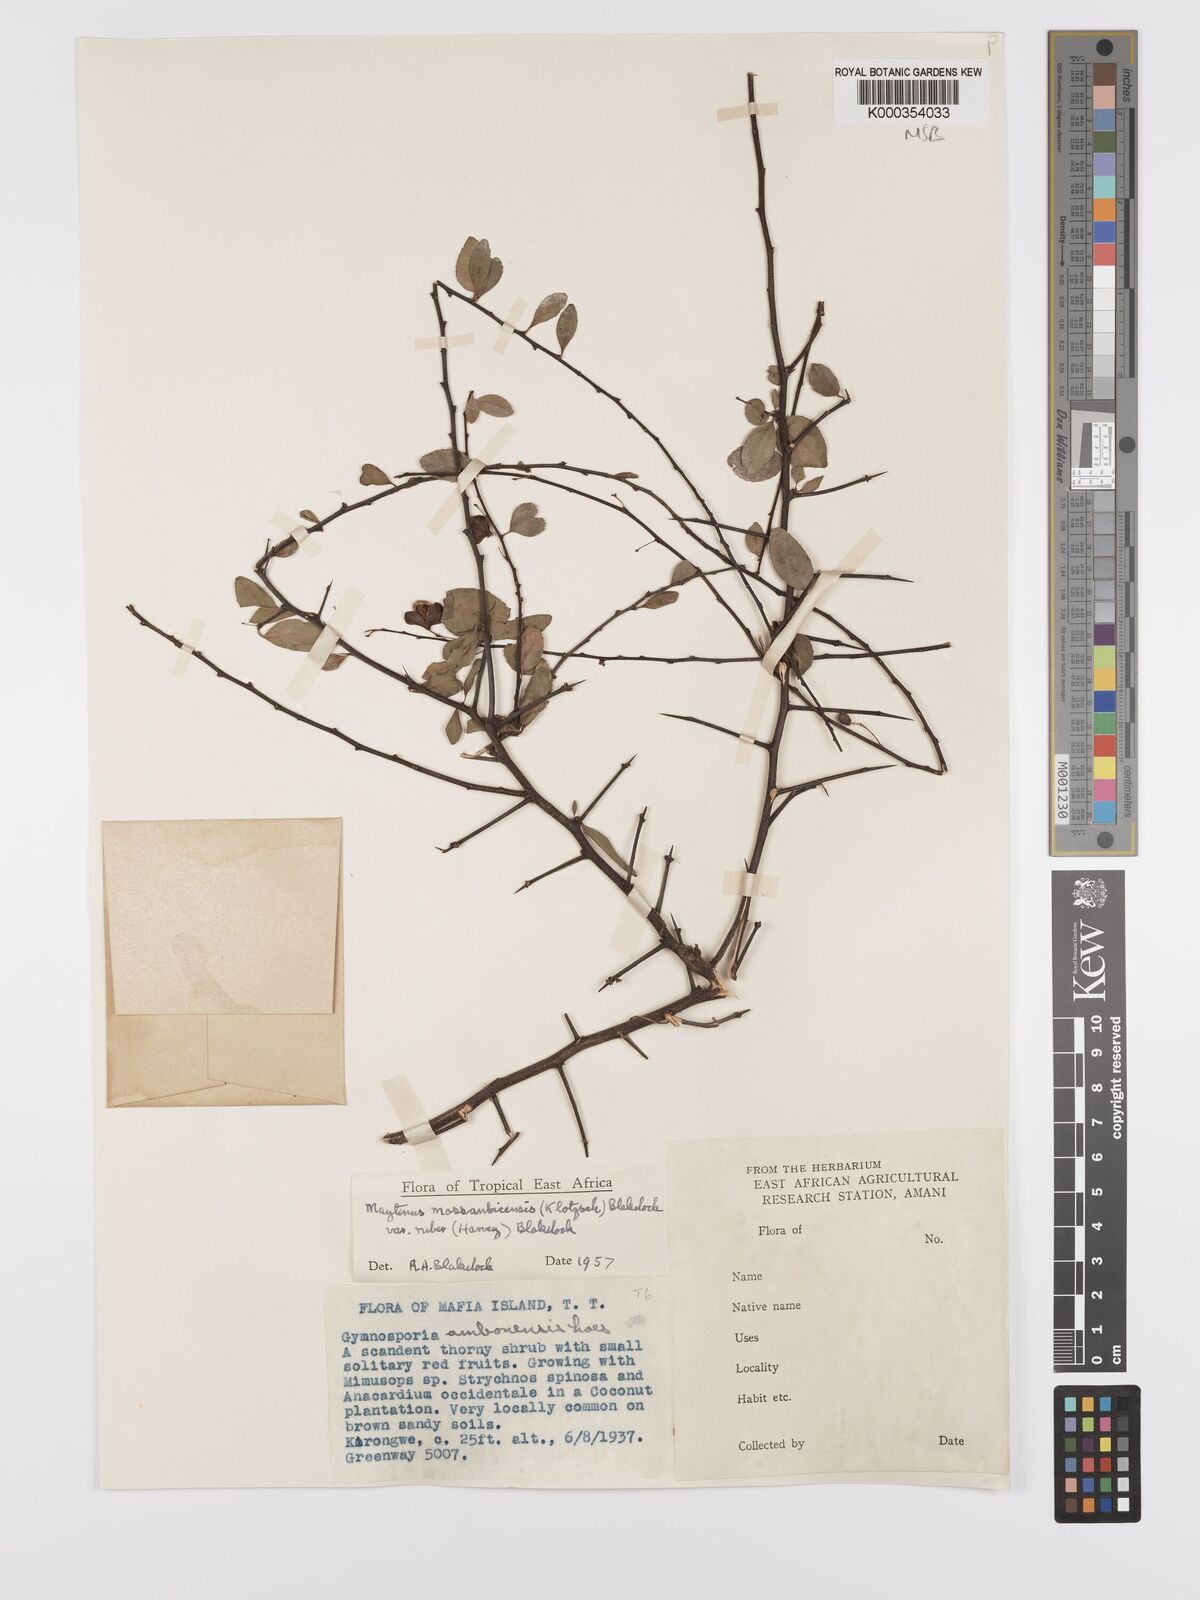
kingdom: Plantae
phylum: Tracheophyta
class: Magnoliopsida
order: Celastrales
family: Celastraceae
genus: Gymnosporia
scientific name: Gymnosporia mossambicensis
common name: Black forest spike-thorn
